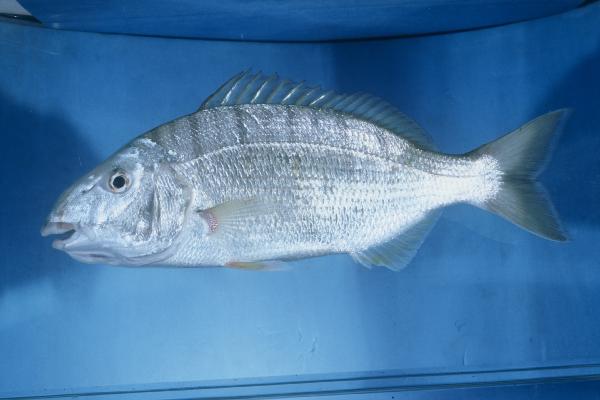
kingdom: Animalia
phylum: Chordata
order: Perciformes
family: Sparidae
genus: Lithognathus
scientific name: Lithognathus mormyrus
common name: Sand steenbras
